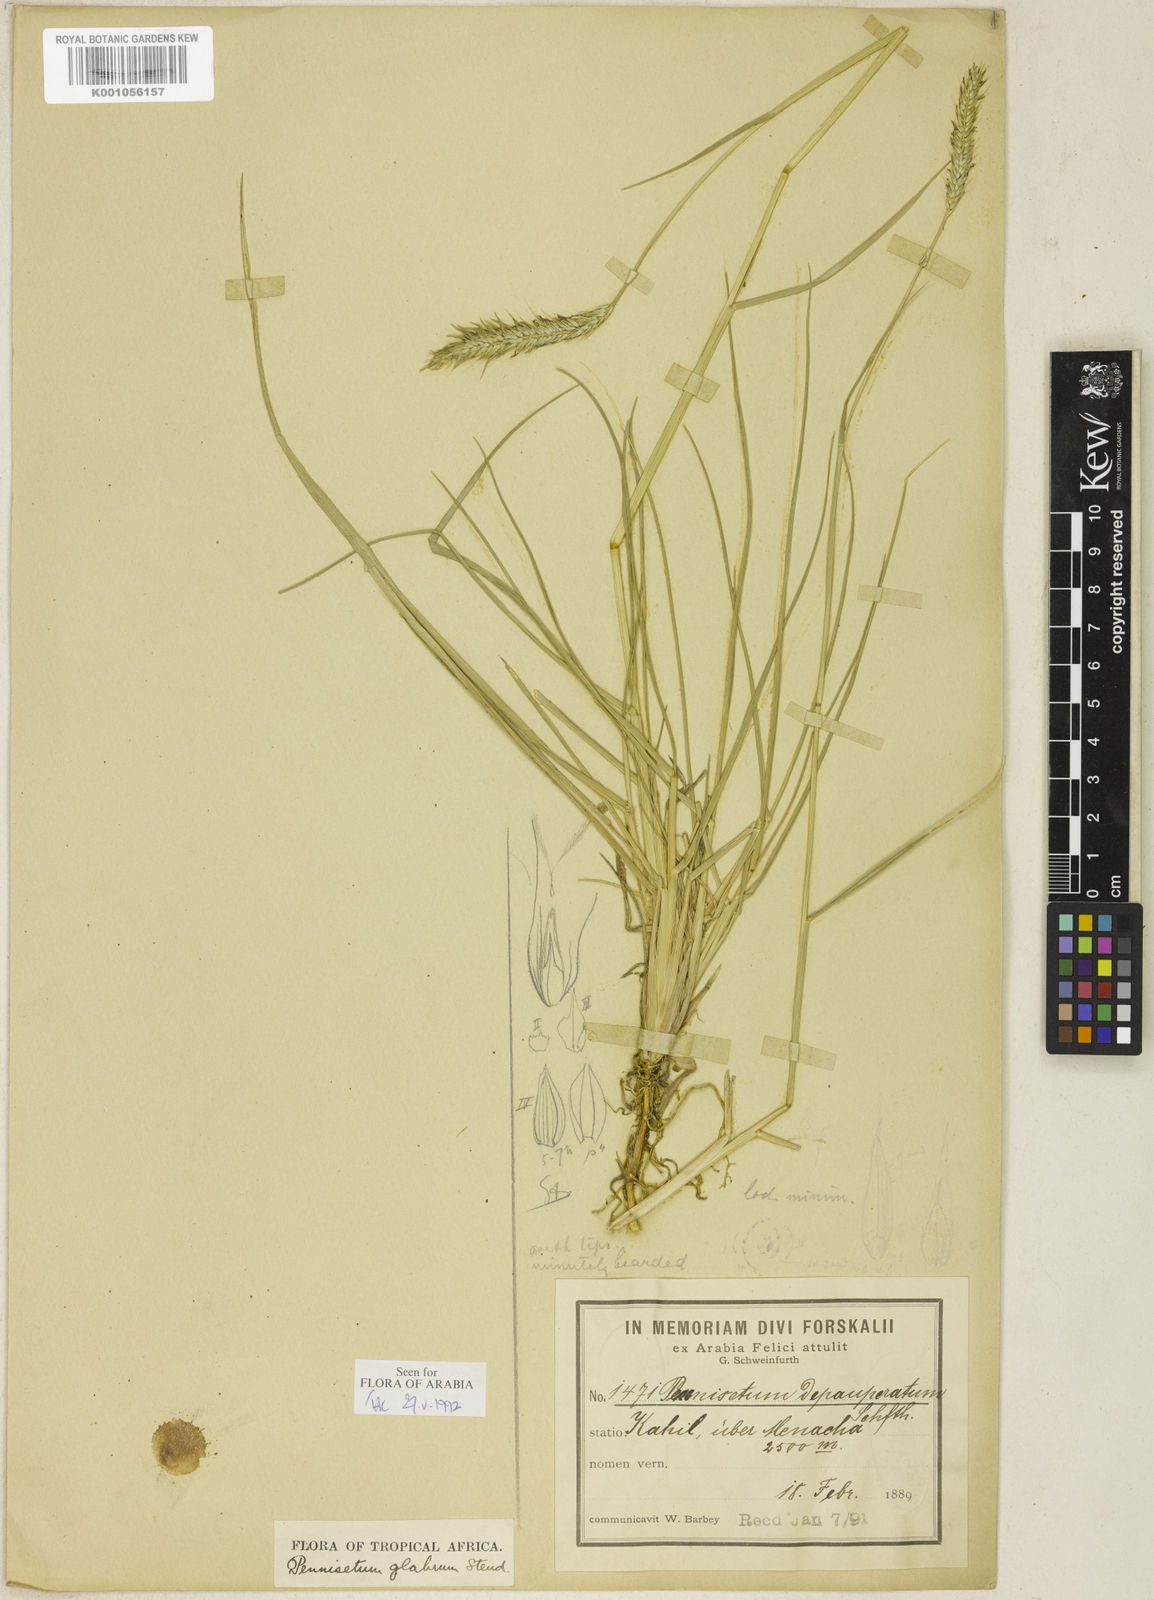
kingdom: Plantae
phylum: Tracheophyta
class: Liliopsida
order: Poales
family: Poaceae
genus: Cenchrus
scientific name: Cenchrus geniculatus
